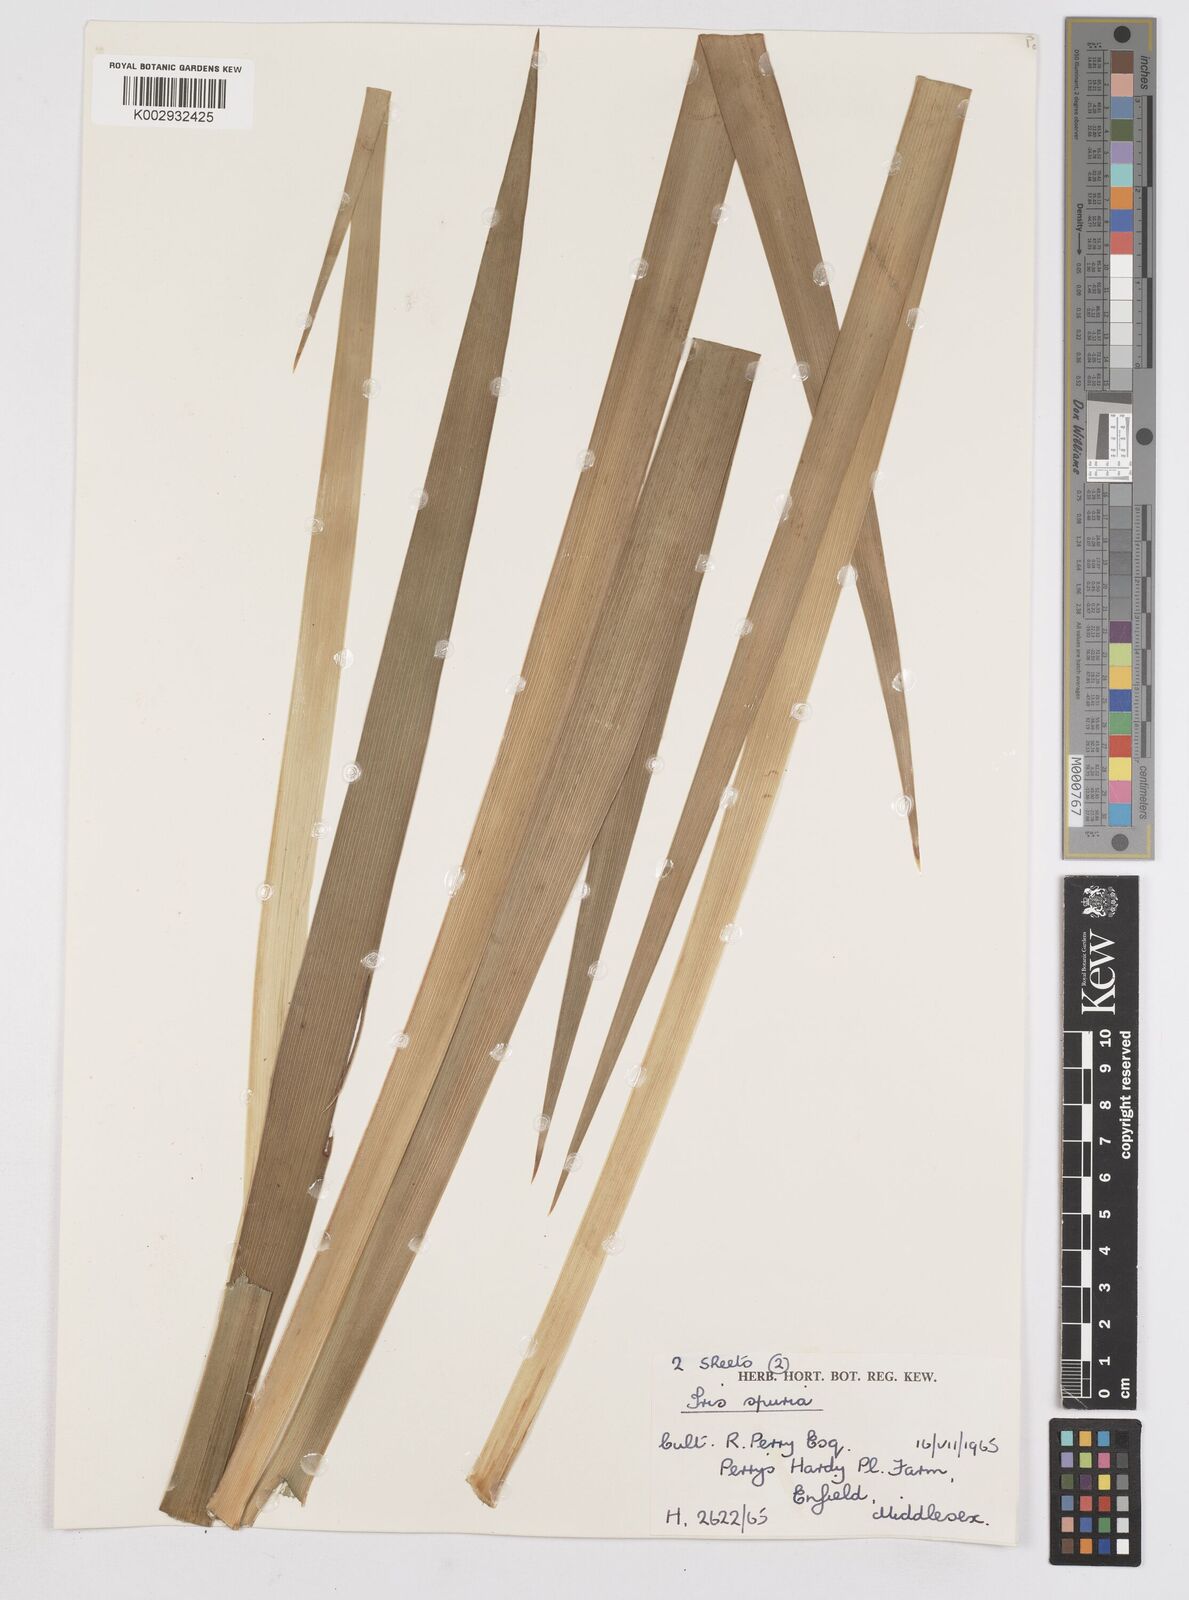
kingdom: Plantae
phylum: Tracheophyta
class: Liliopsida
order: Asparagales
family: Iridaceae
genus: Iris
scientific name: Iris spuria
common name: Blue iris
